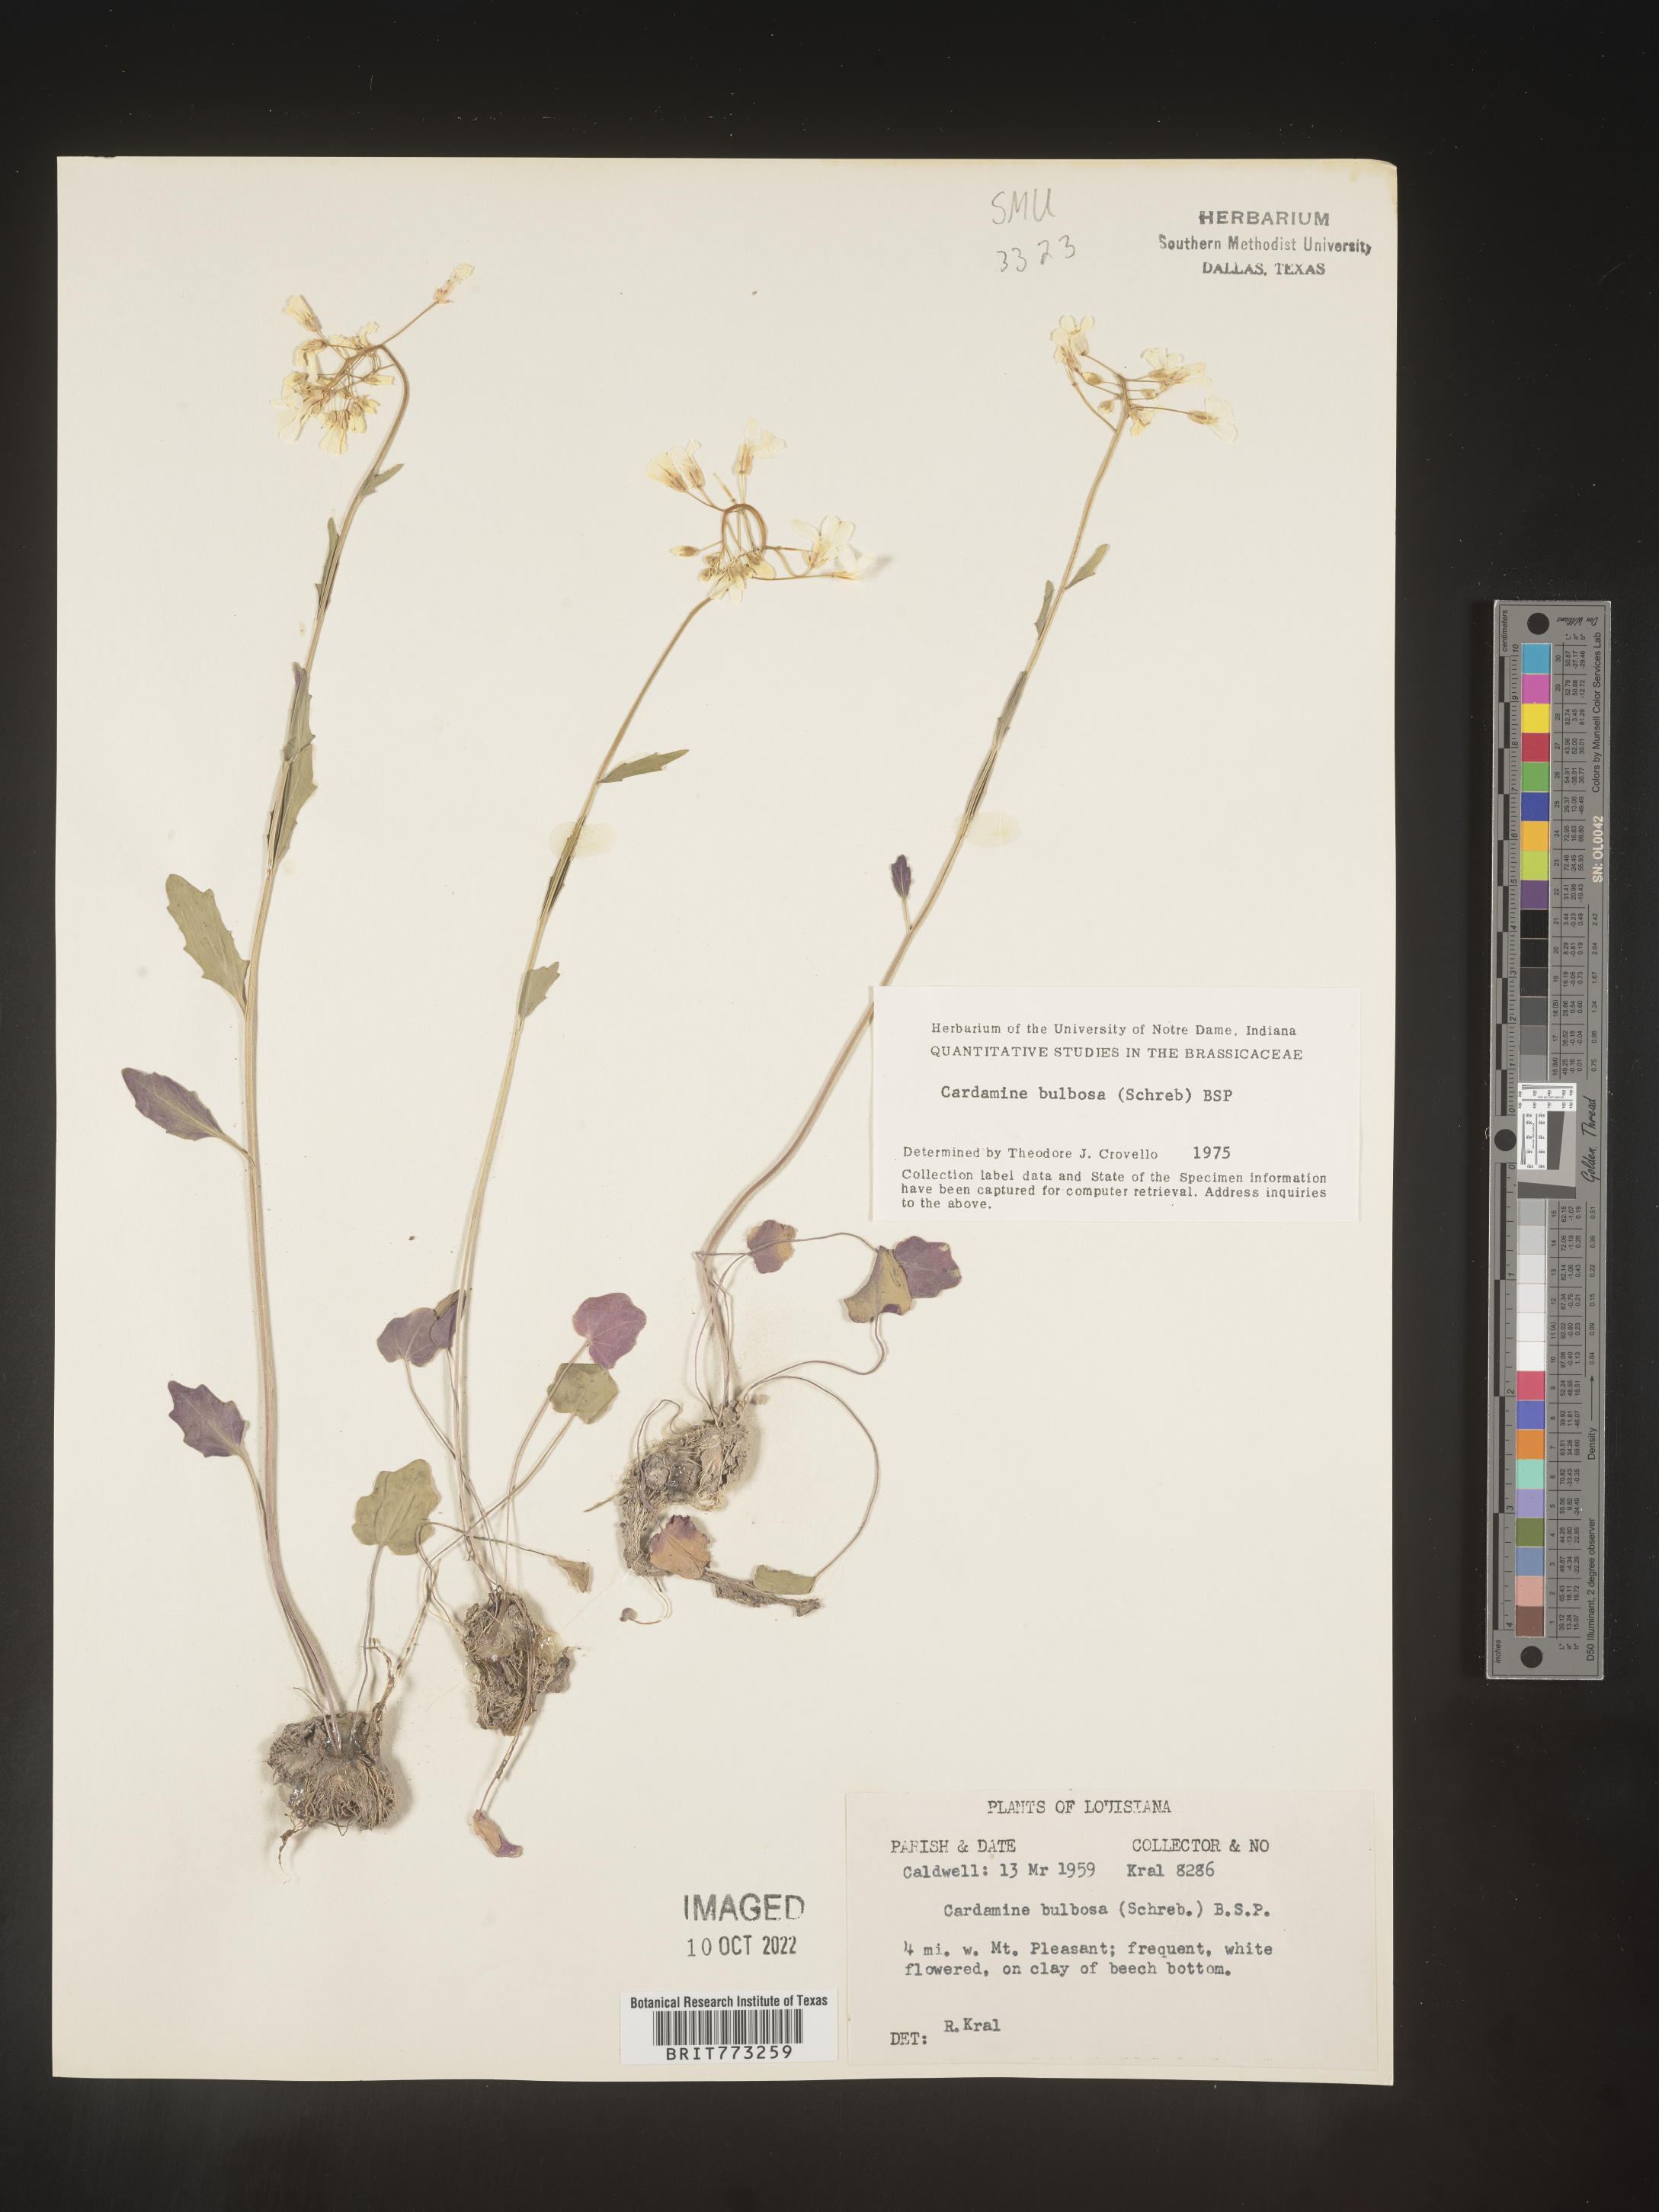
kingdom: Plantae
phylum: Tracheophyta
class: Magnoliopsida
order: Brassicales
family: Brassicaceae
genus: Cardamine
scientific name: Cardamine bulbosa
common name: Spring cress
